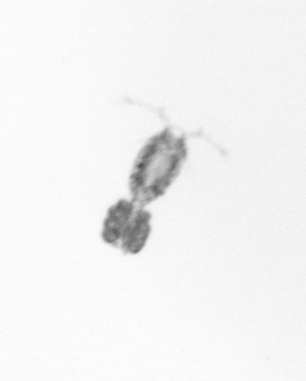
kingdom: Animalia
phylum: Arthropoda
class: Copepoda
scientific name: Copepoda
